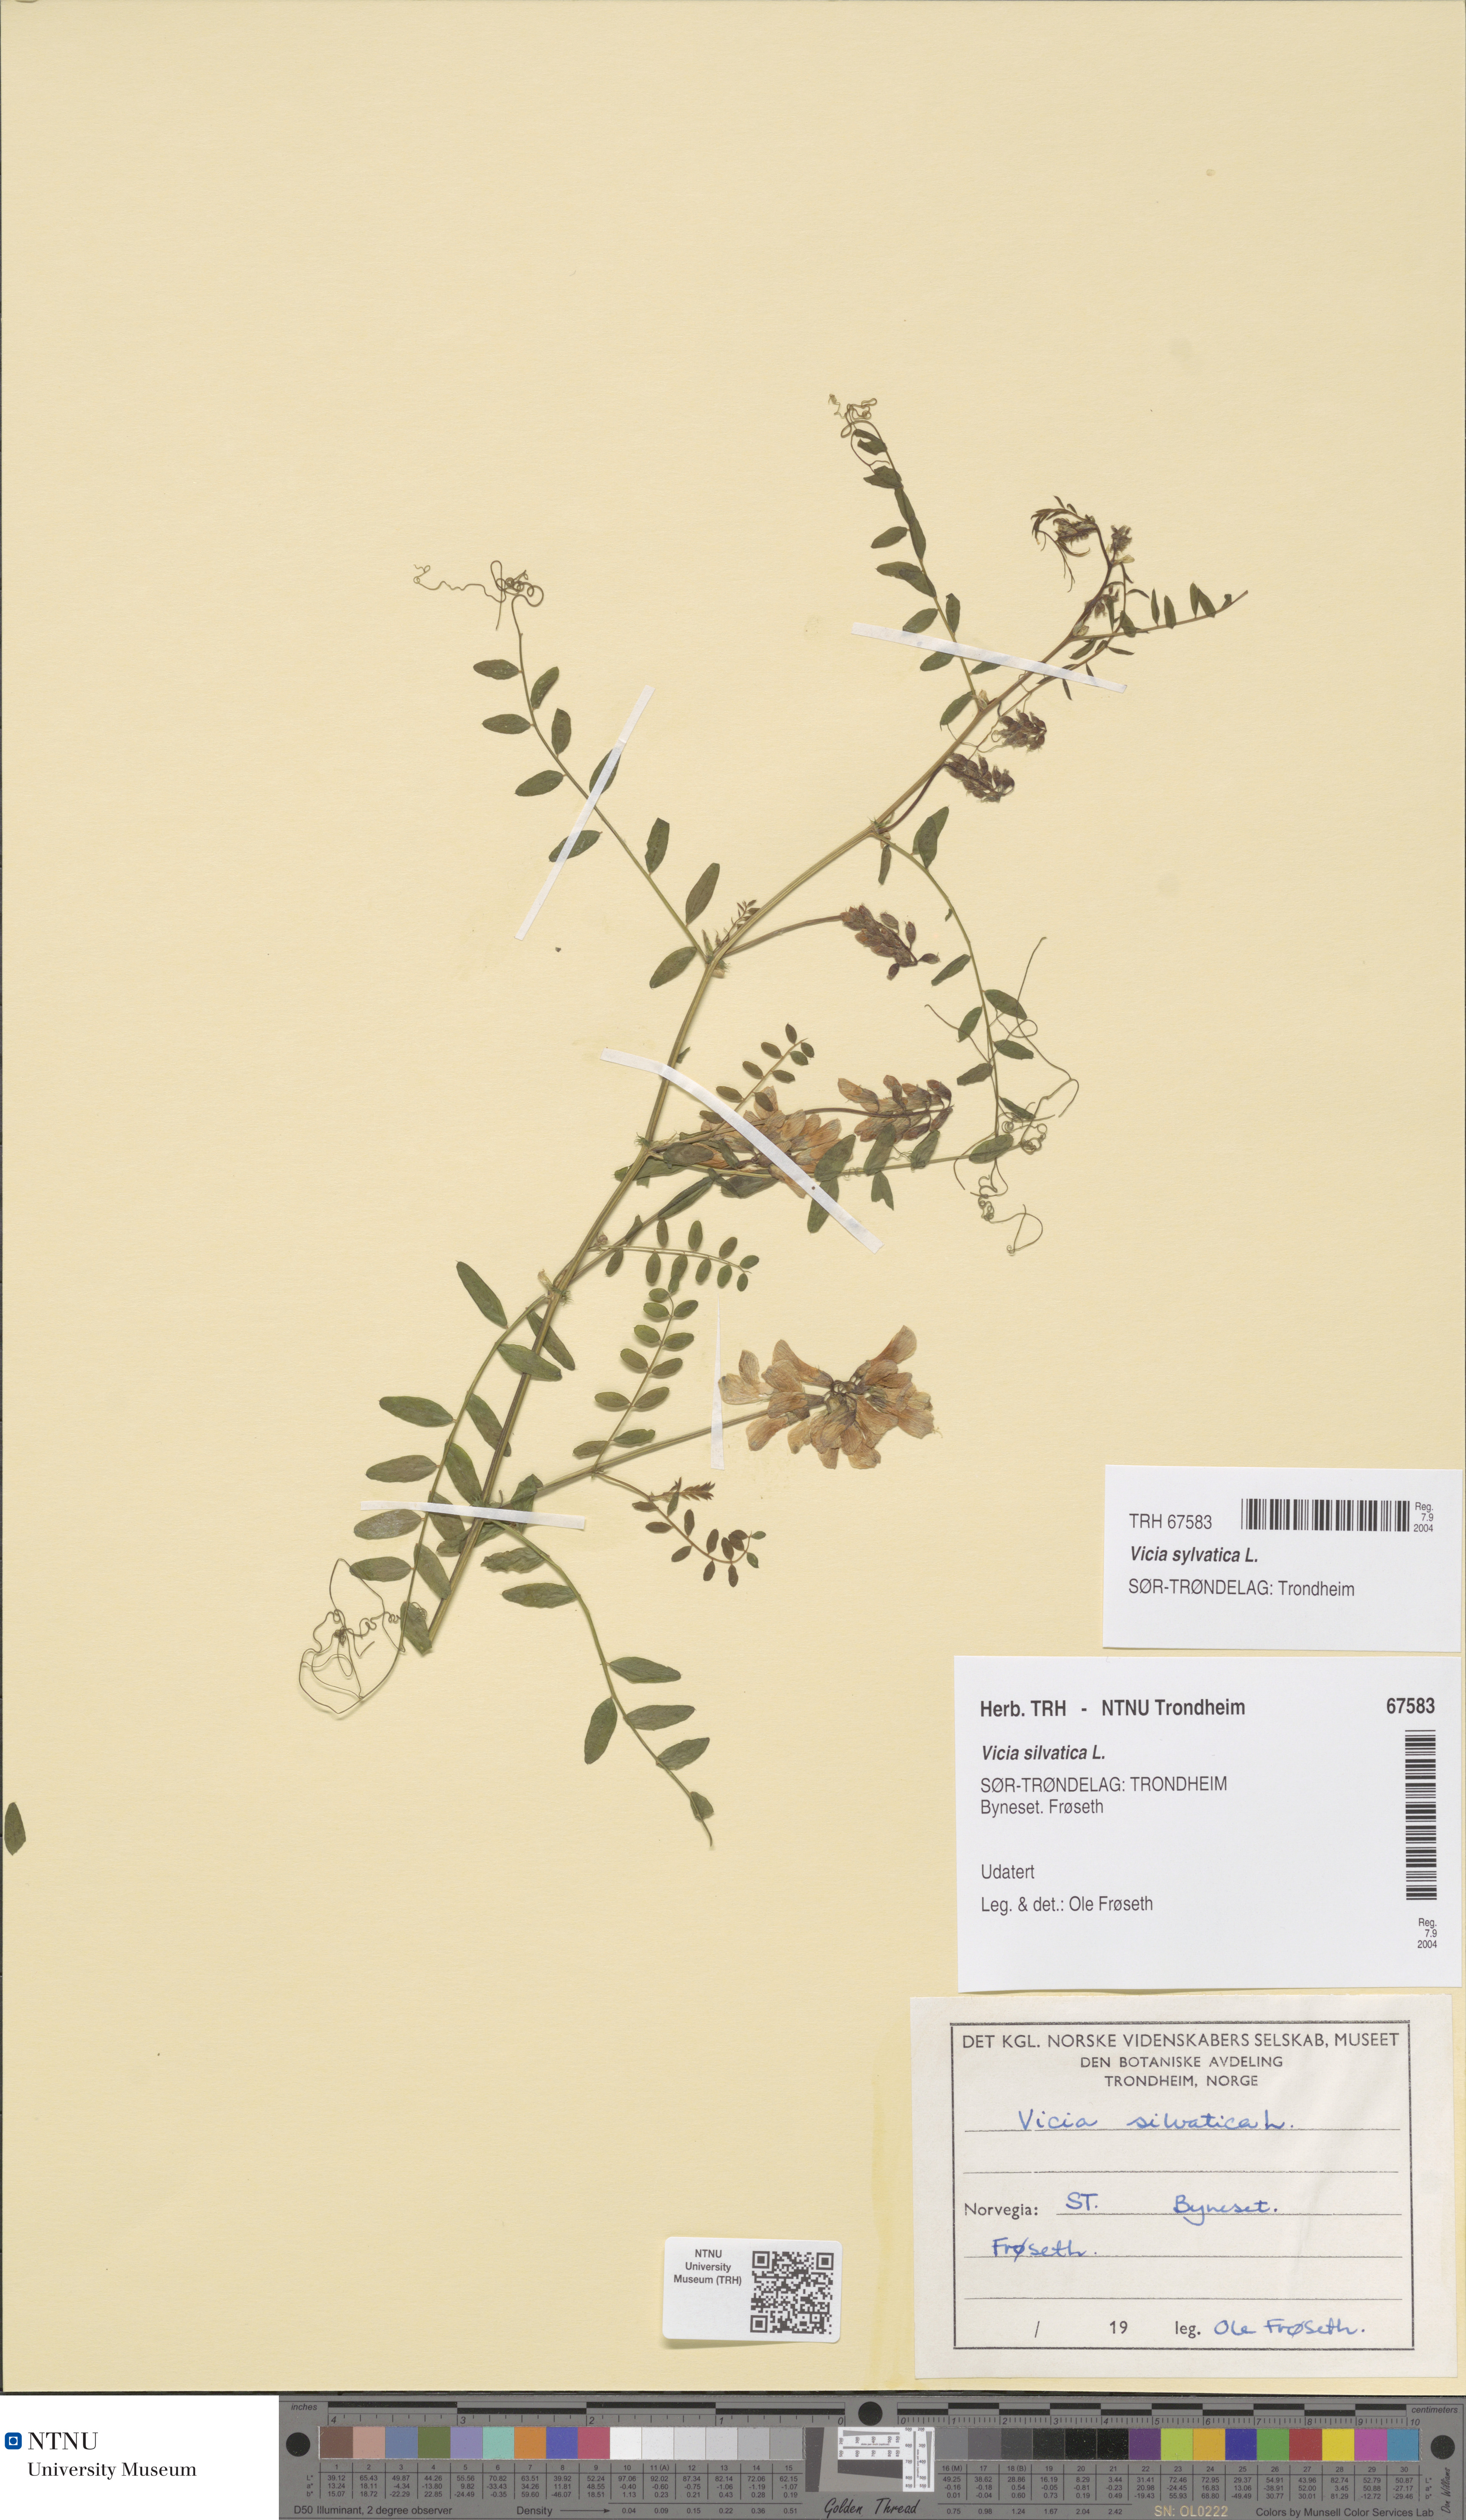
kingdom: Plantae
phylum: Tracheophyta
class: Magnoliopsida
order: Fabales
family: Fabaceae
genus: Vicia
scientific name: Vicia sylvatica
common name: Wood vetch
